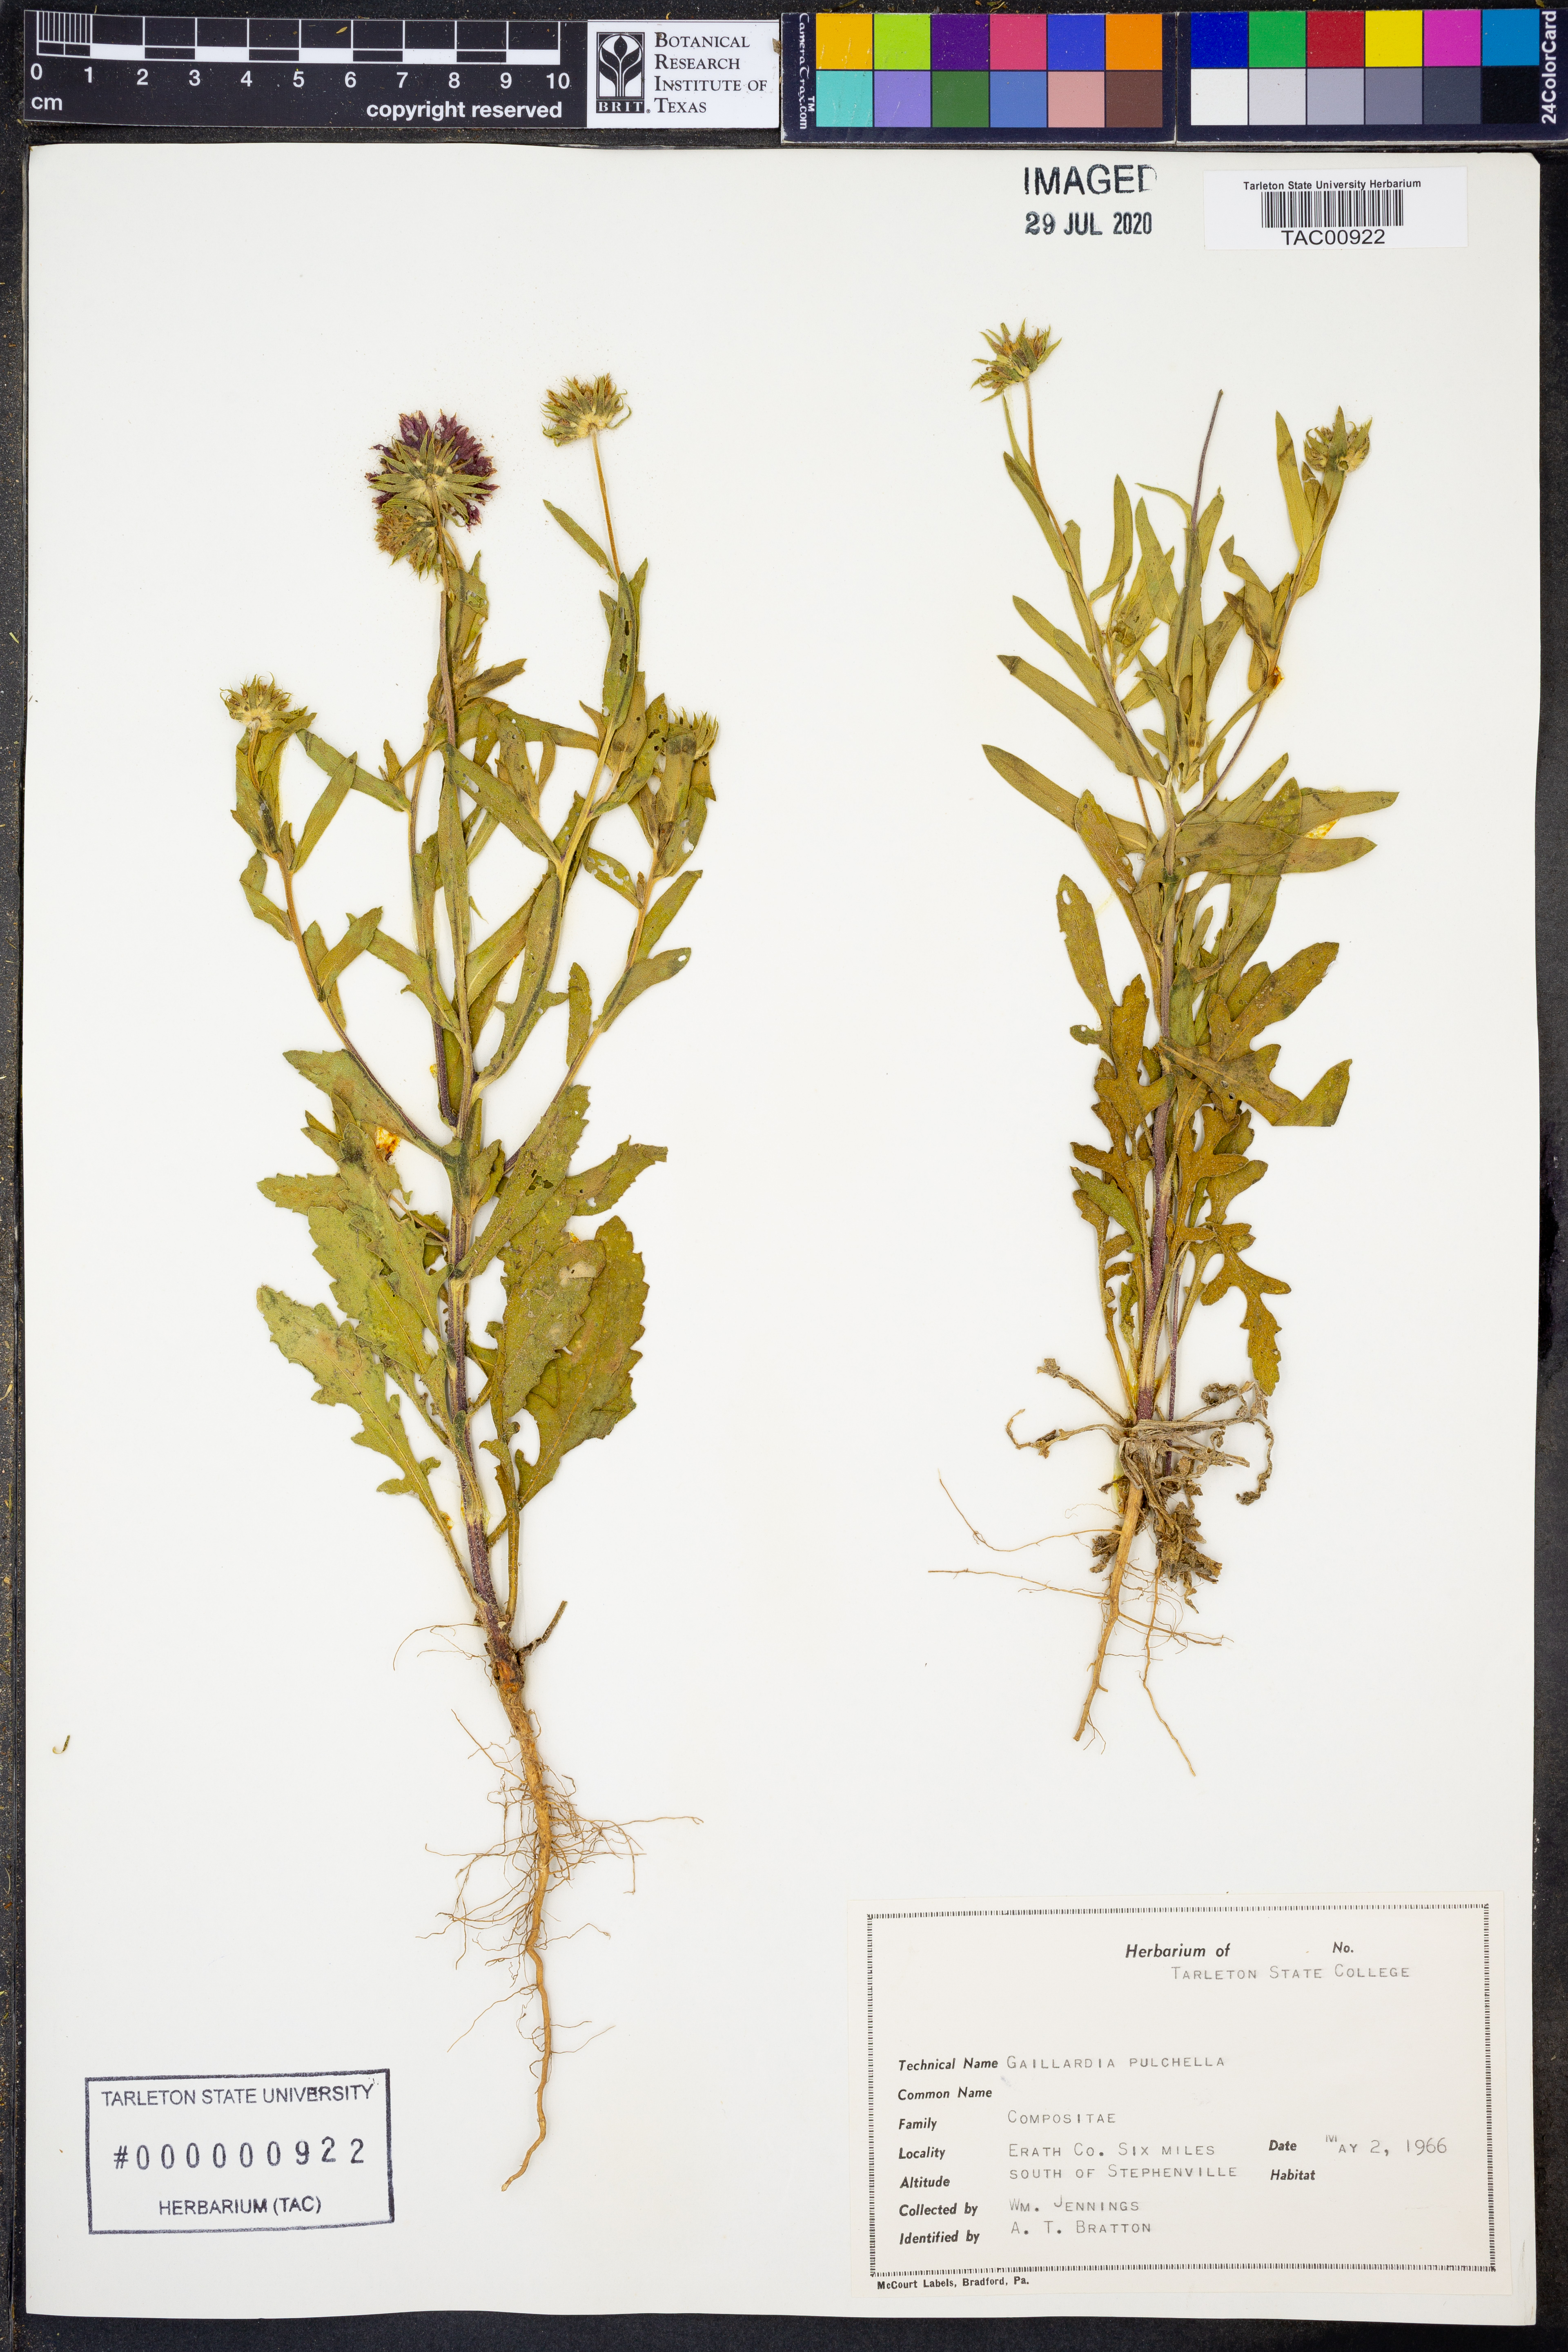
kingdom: Plantae
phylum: Tracheophyta
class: Magnoliopsida
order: Asterales
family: Asteraceae
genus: Gaillardia
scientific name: Gaillardia pulchella
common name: Firewheel
